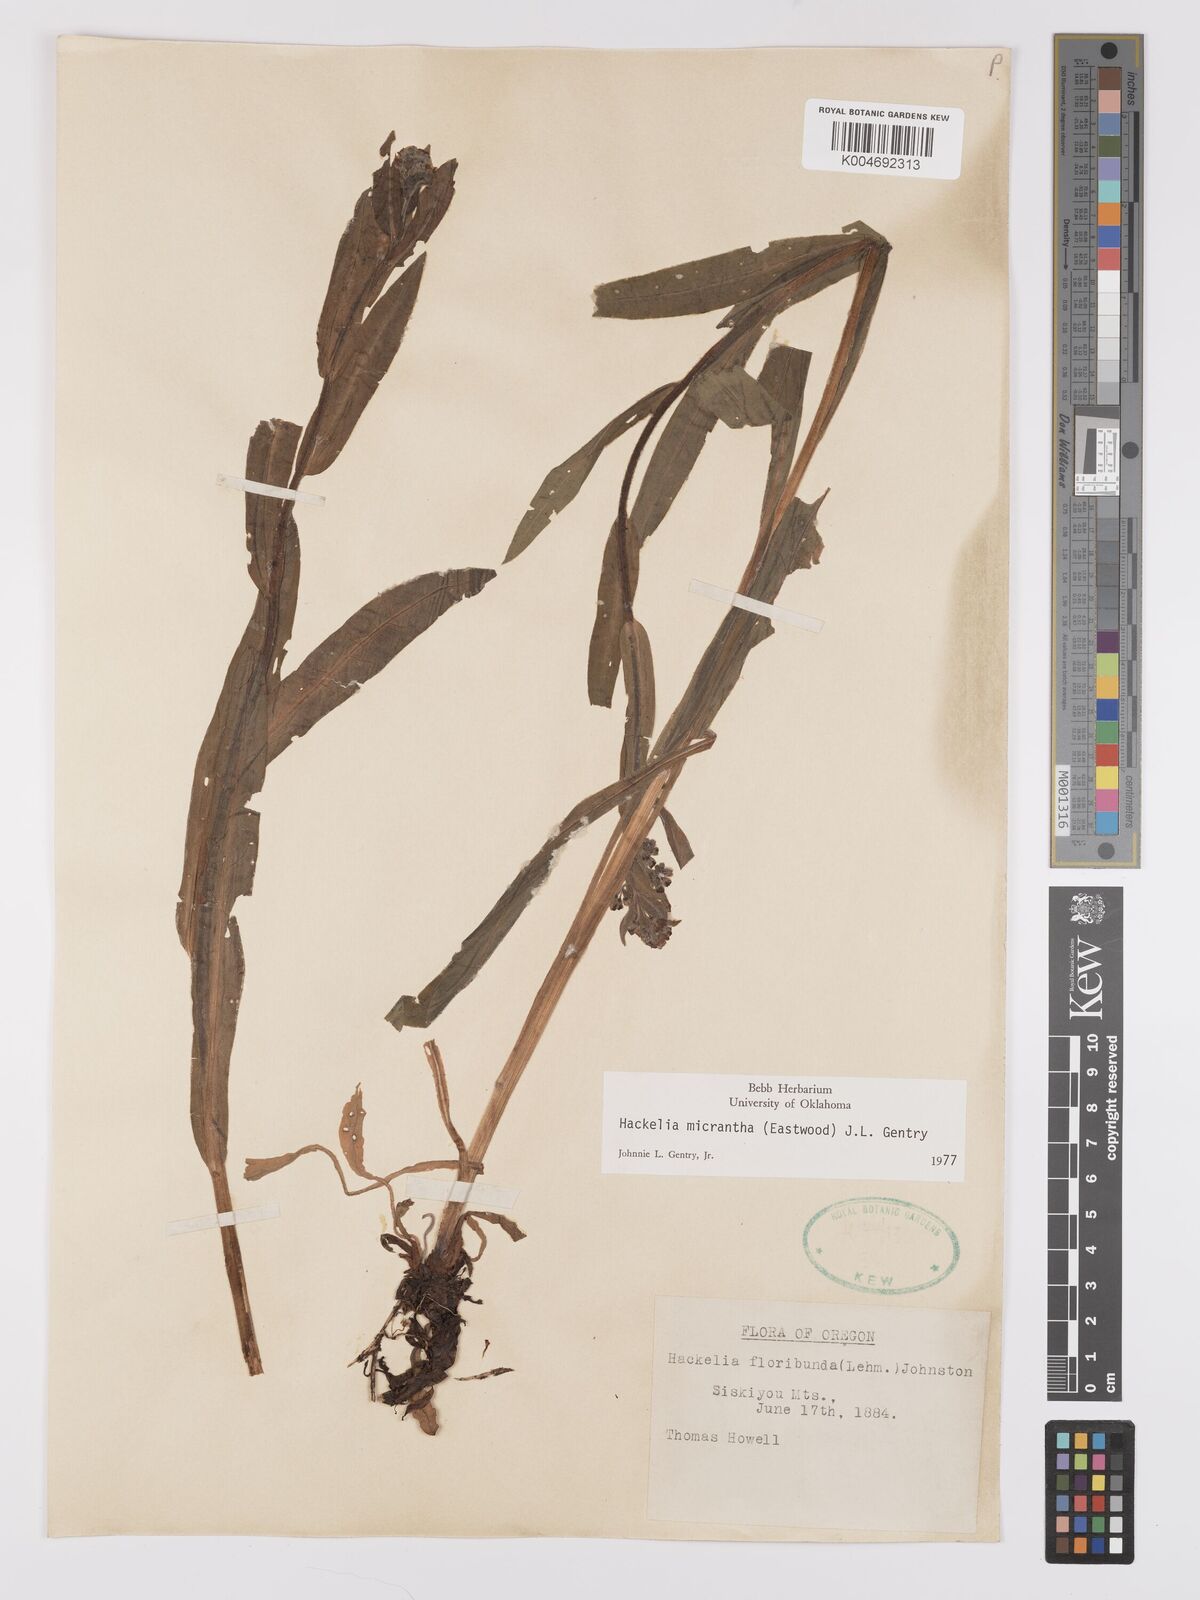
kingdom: Plantae
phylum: Tracheophyta
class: Magnoliopsida
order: Boraginales
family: Boraginaceae
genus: Hackelia
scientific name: Hackelia diffusa
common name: Spreading hackelia
